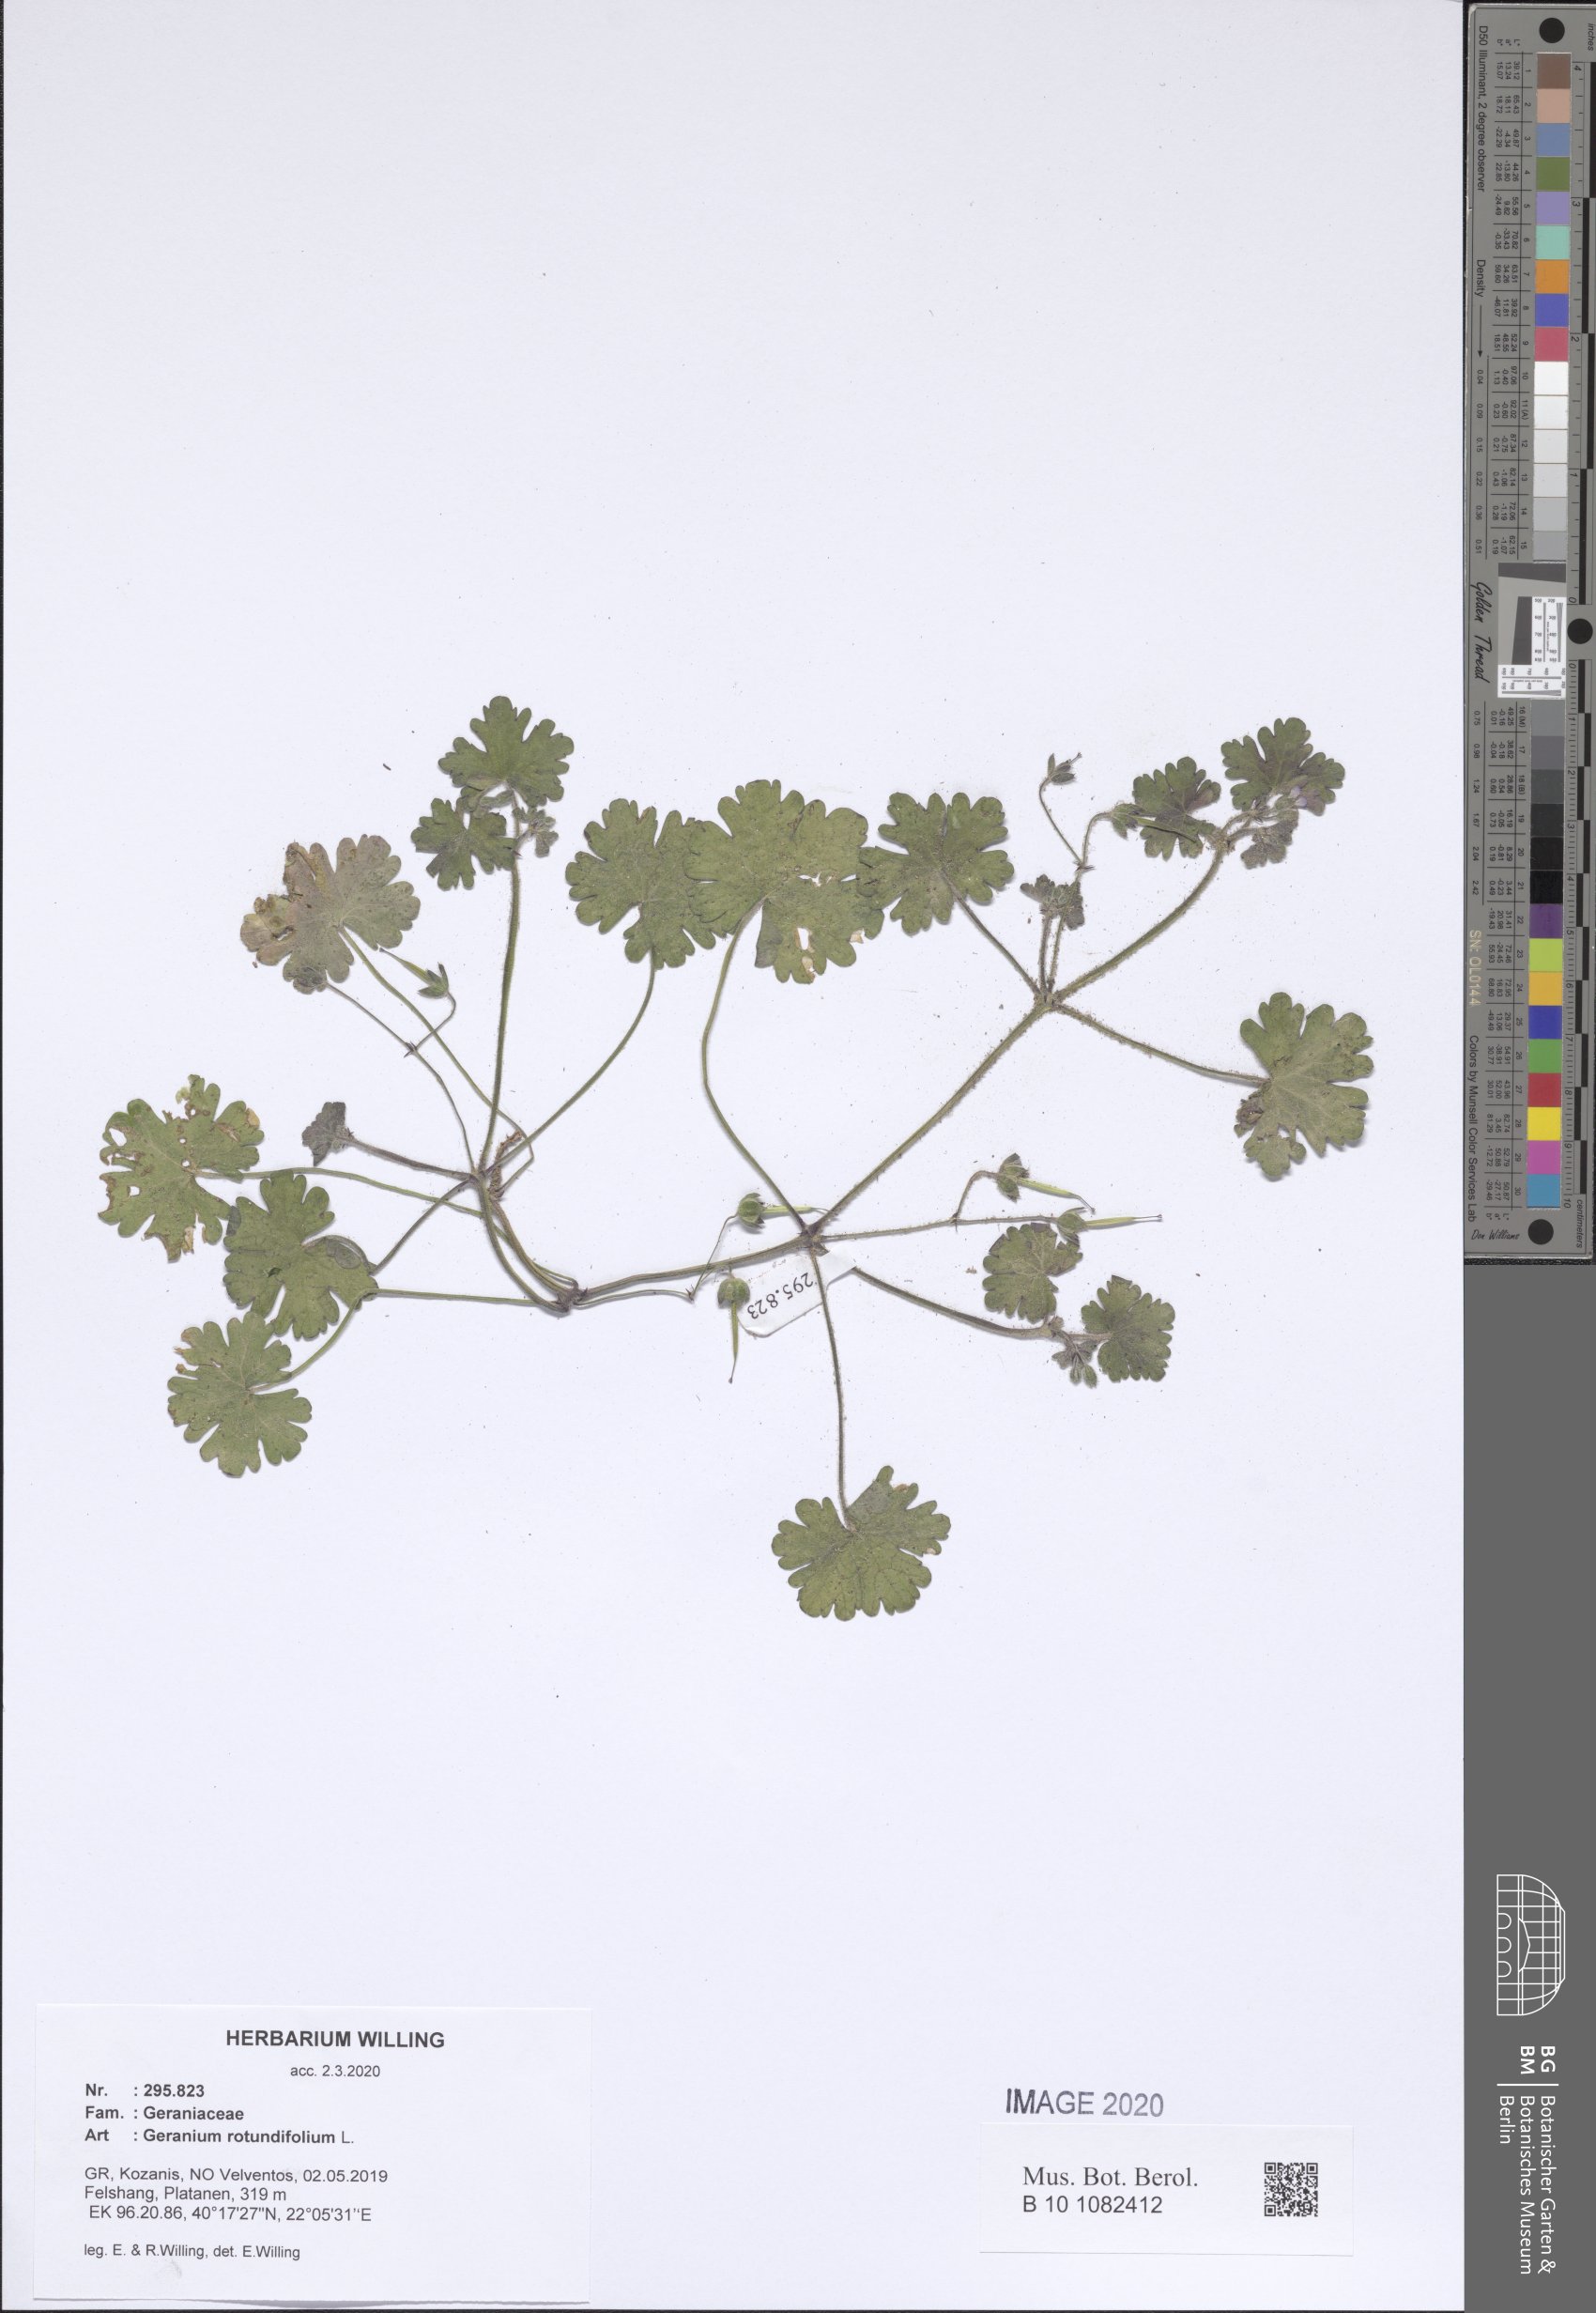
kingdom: Plantae
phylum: Tracheophyta
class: Magnoliopsida
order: Geraniales
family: Geraniaceae
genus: Geranium
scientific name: Geranium rotundifolium
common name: Round-leaved crane's-bill
